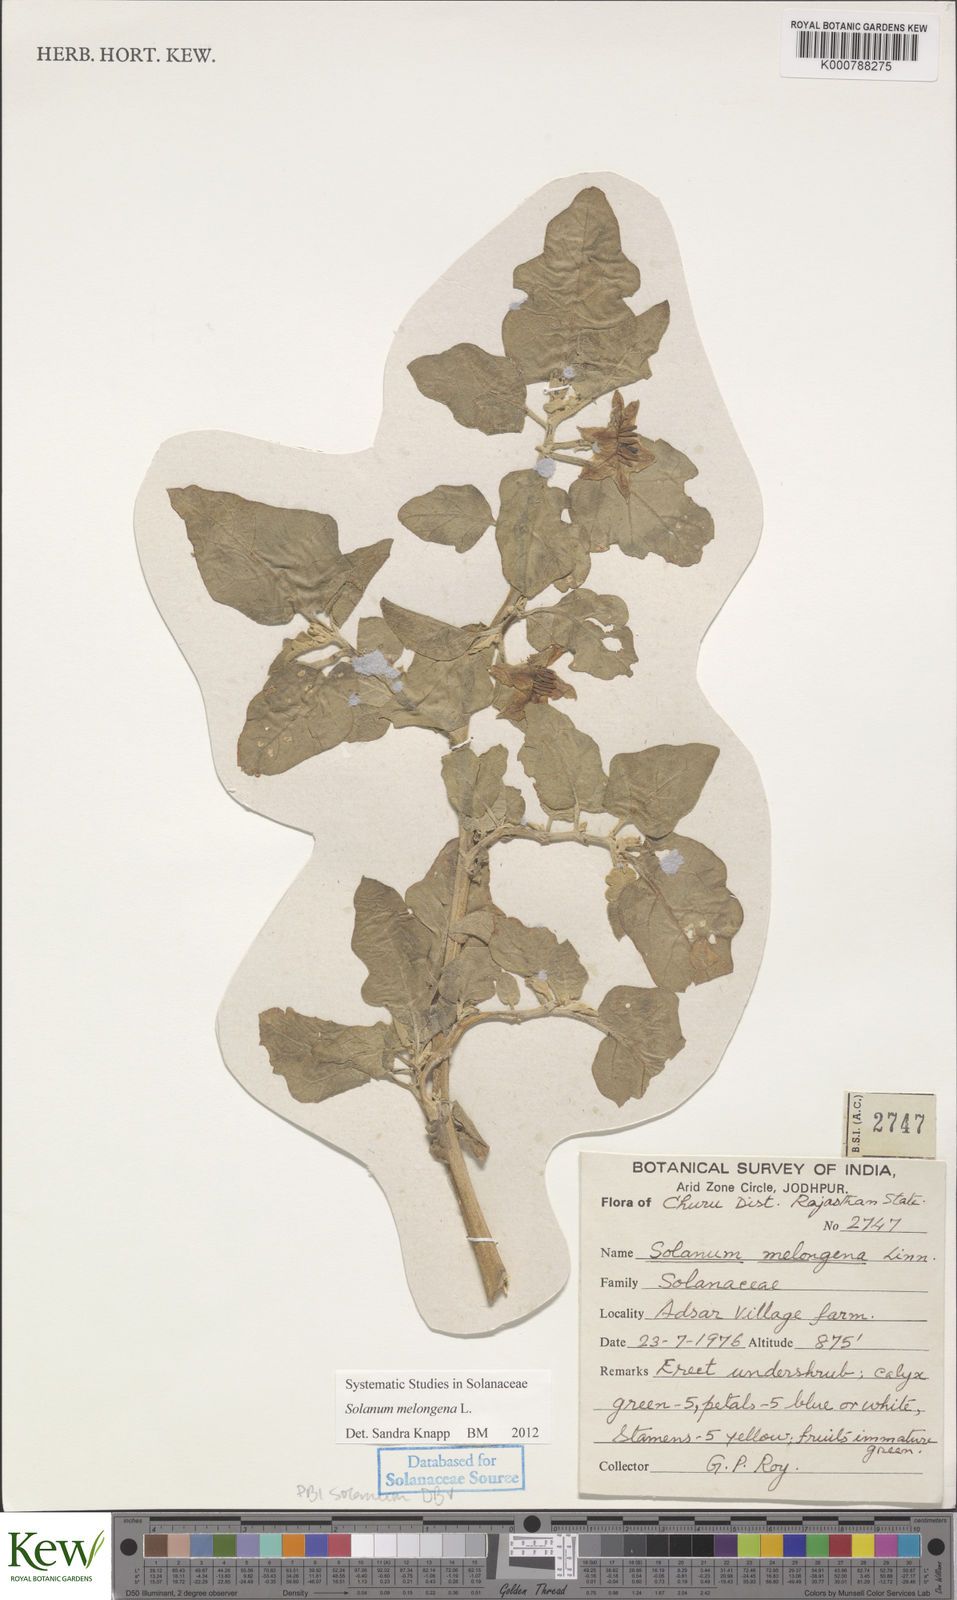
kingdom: Plantae
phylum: Tracheophyta
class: Magnoliopsida
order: Solanales
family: Solanaceae
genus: Solanum
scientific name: Solanum melongena
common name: Eggplant
